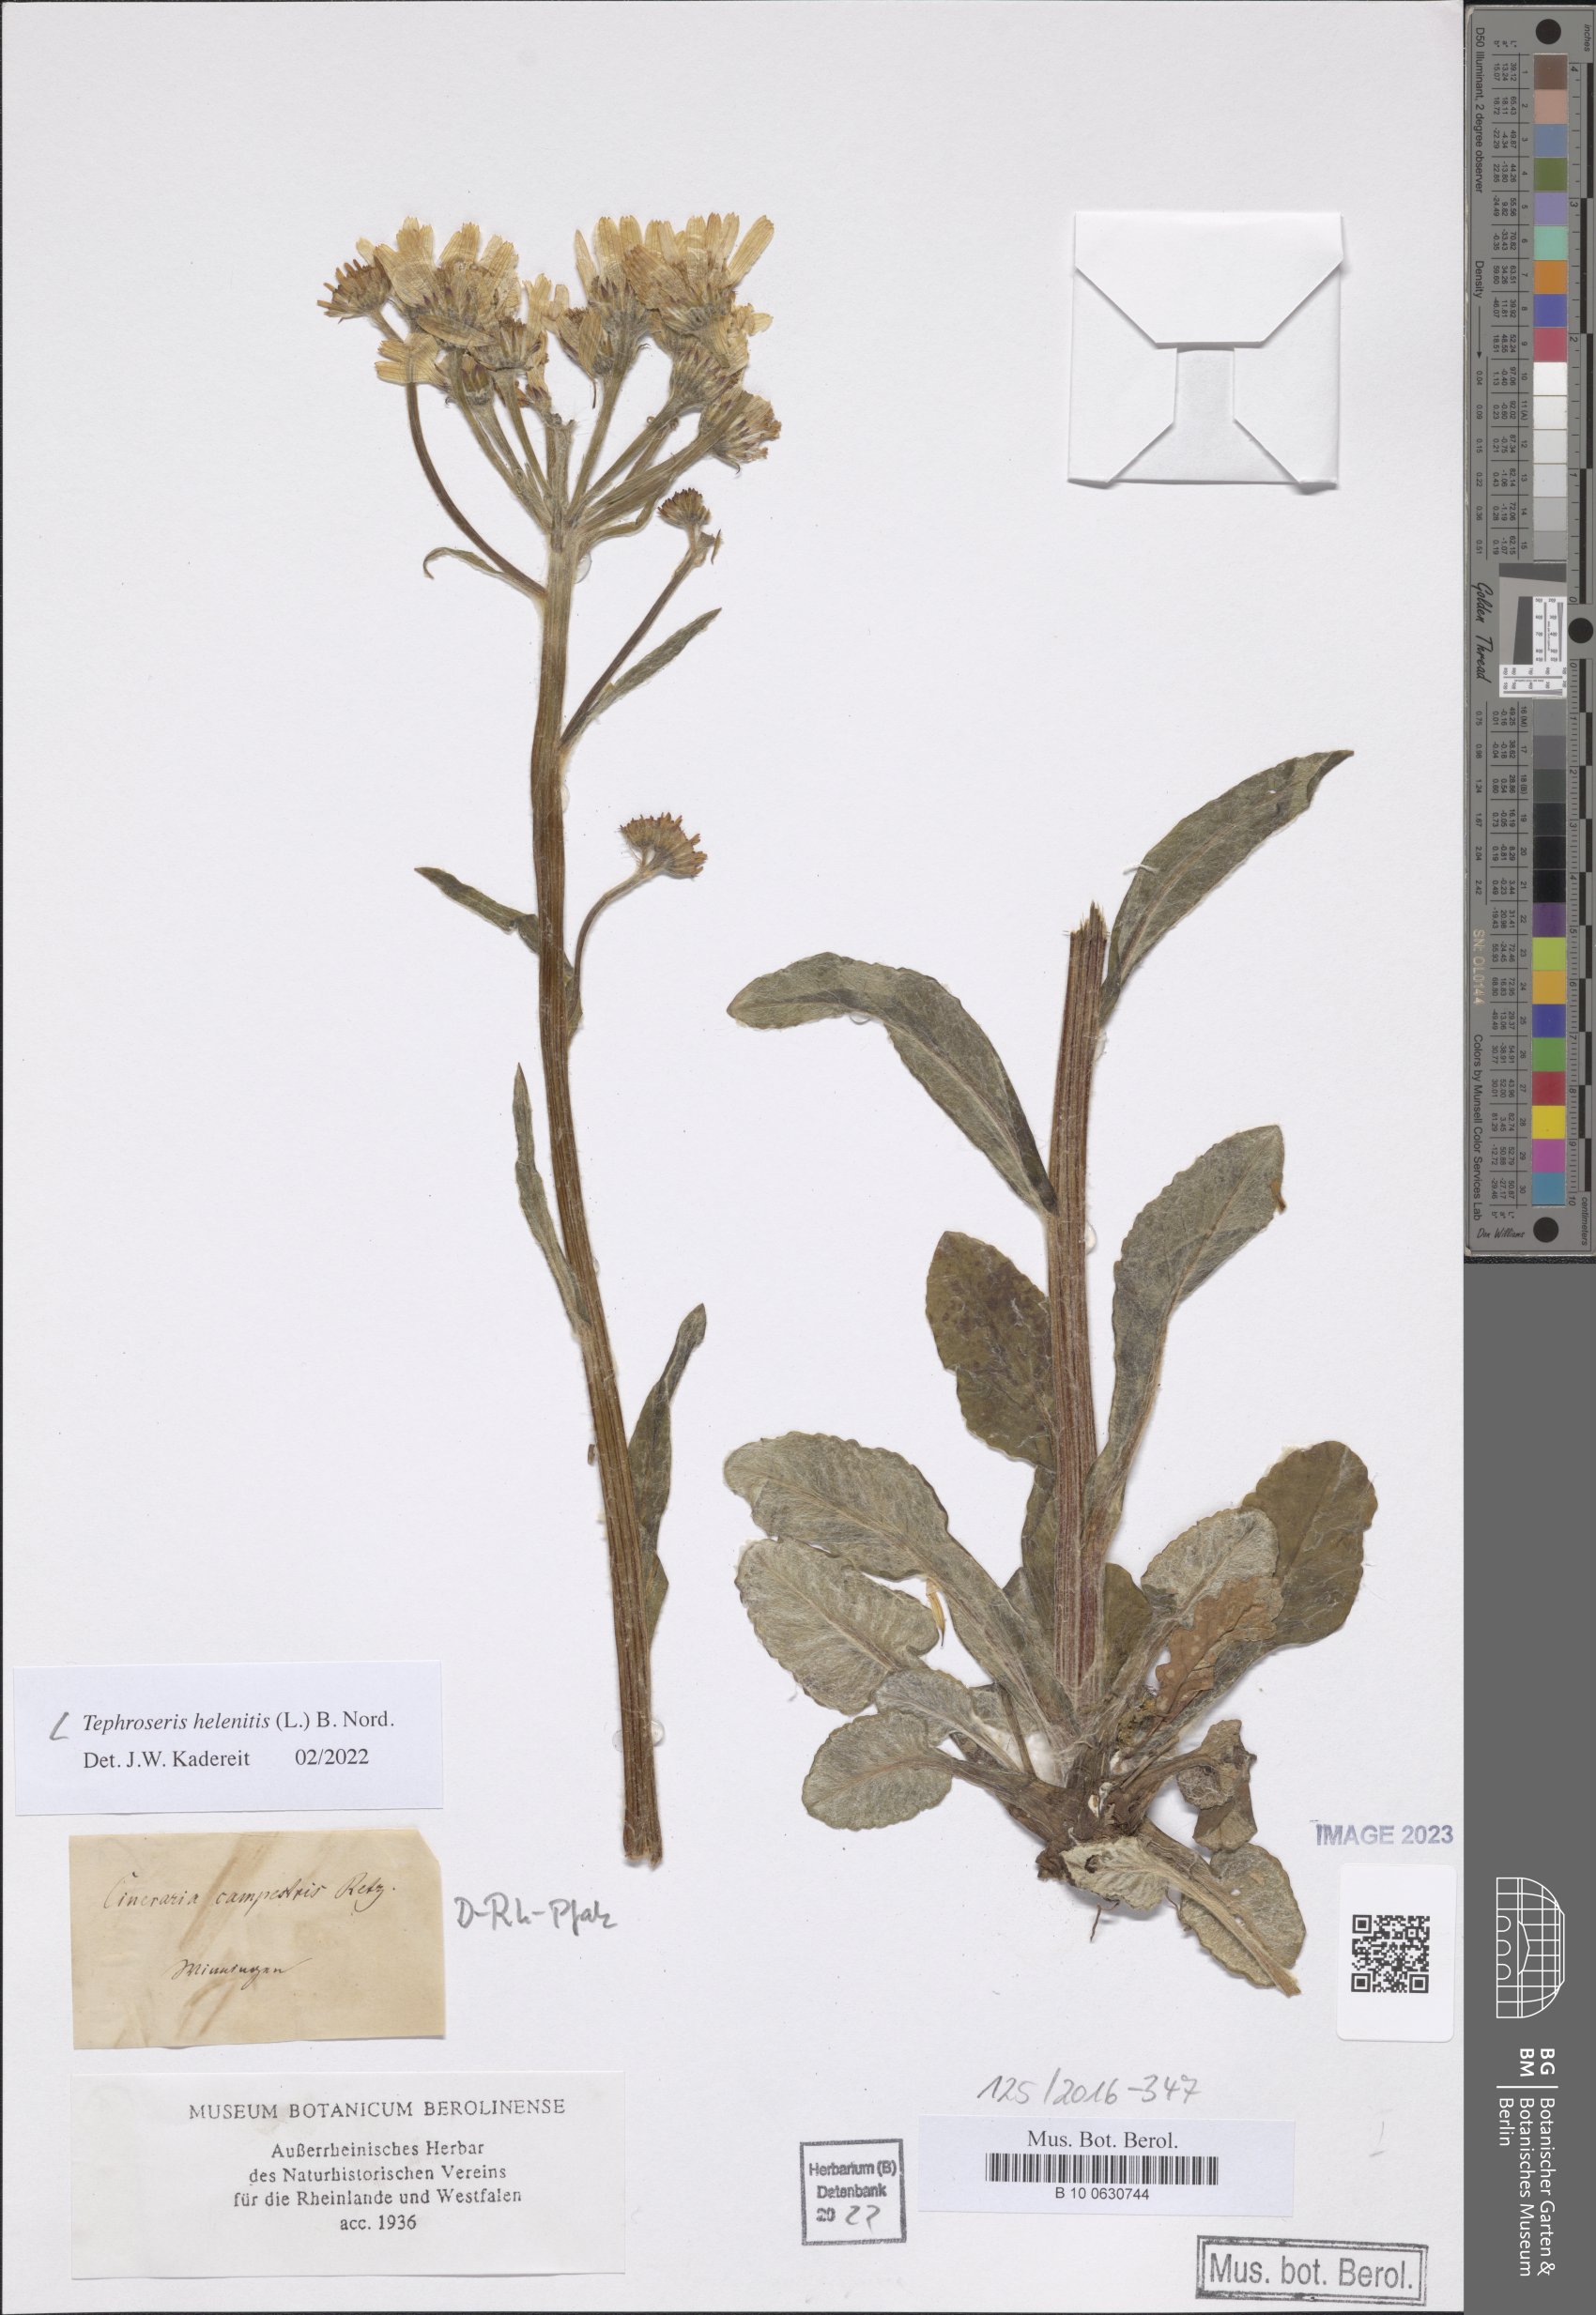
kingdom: Plantae
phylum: Tracheophyta
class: Magnoliopsida
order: Asterales
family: Asteraceae
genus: Tephroseris
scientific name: Tephroseris helenitis
